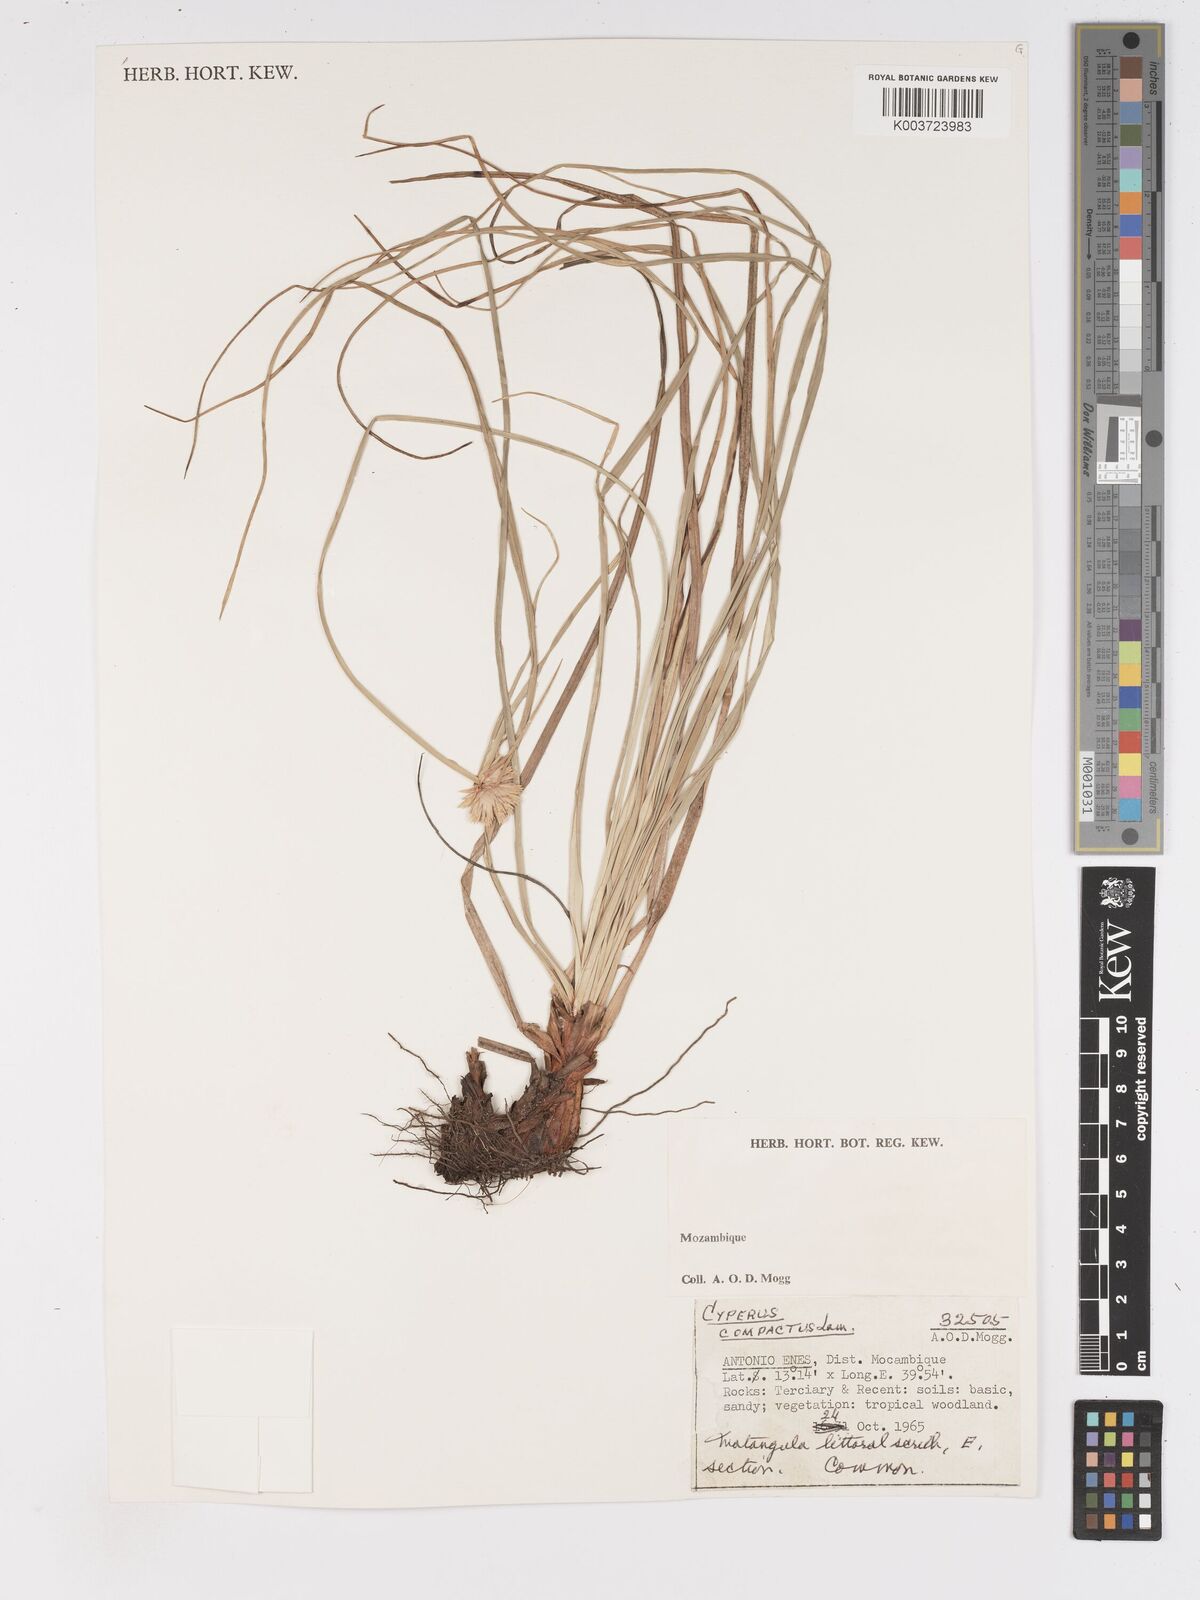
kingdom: Plantae
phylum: Tracheophyta
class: Liliopsida
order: Poales
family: Cyperaceae
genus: Cyperus
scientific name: Cyperus niveus
